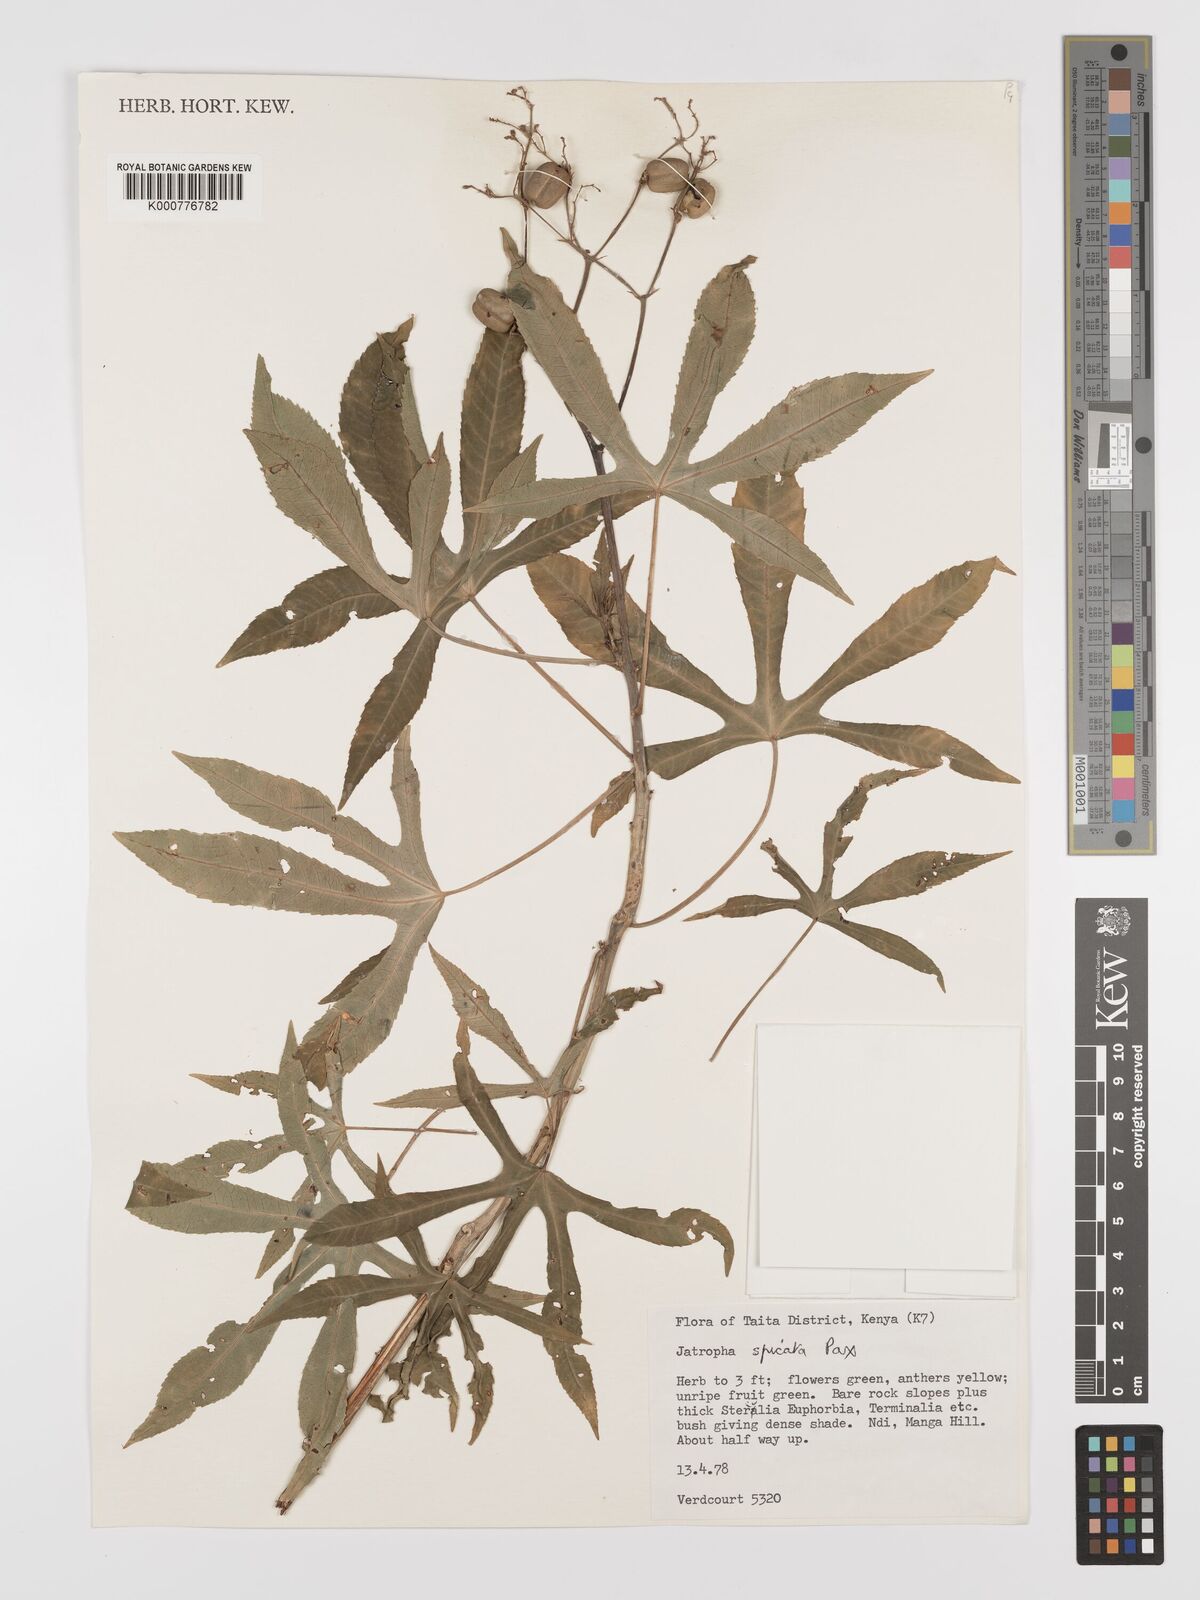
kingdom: Plantae
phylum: Tracheophyta
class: Magnoliopsida
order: Malpighiales
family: Euphorbiaceae
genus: Jatropha
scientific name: Jatropha spicata
